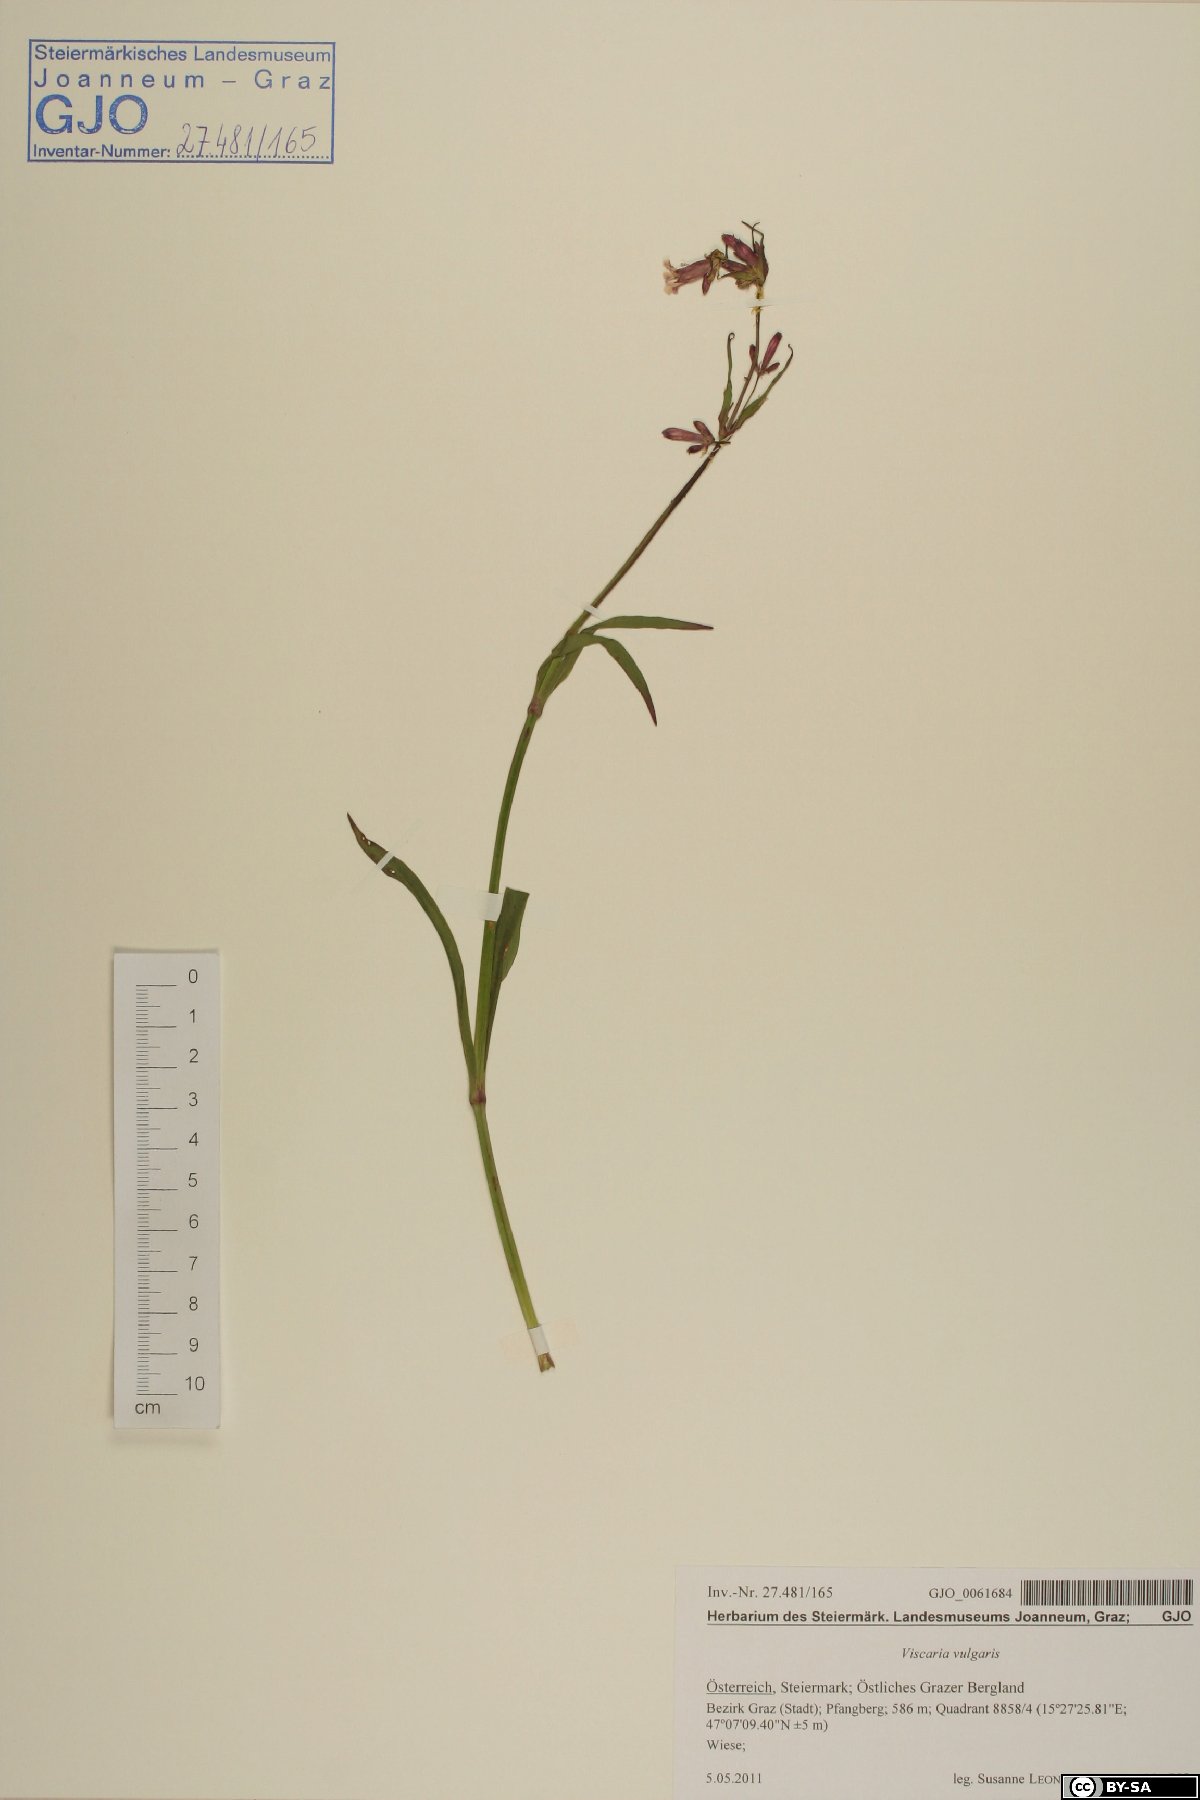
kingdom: Plantae
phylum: Tracheophyta
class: Magnoliopsida
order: Caryophyllales
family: Caryophyllaceae
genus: Viscaria
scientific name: Viscaria vulgaris
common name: Clammy campion
